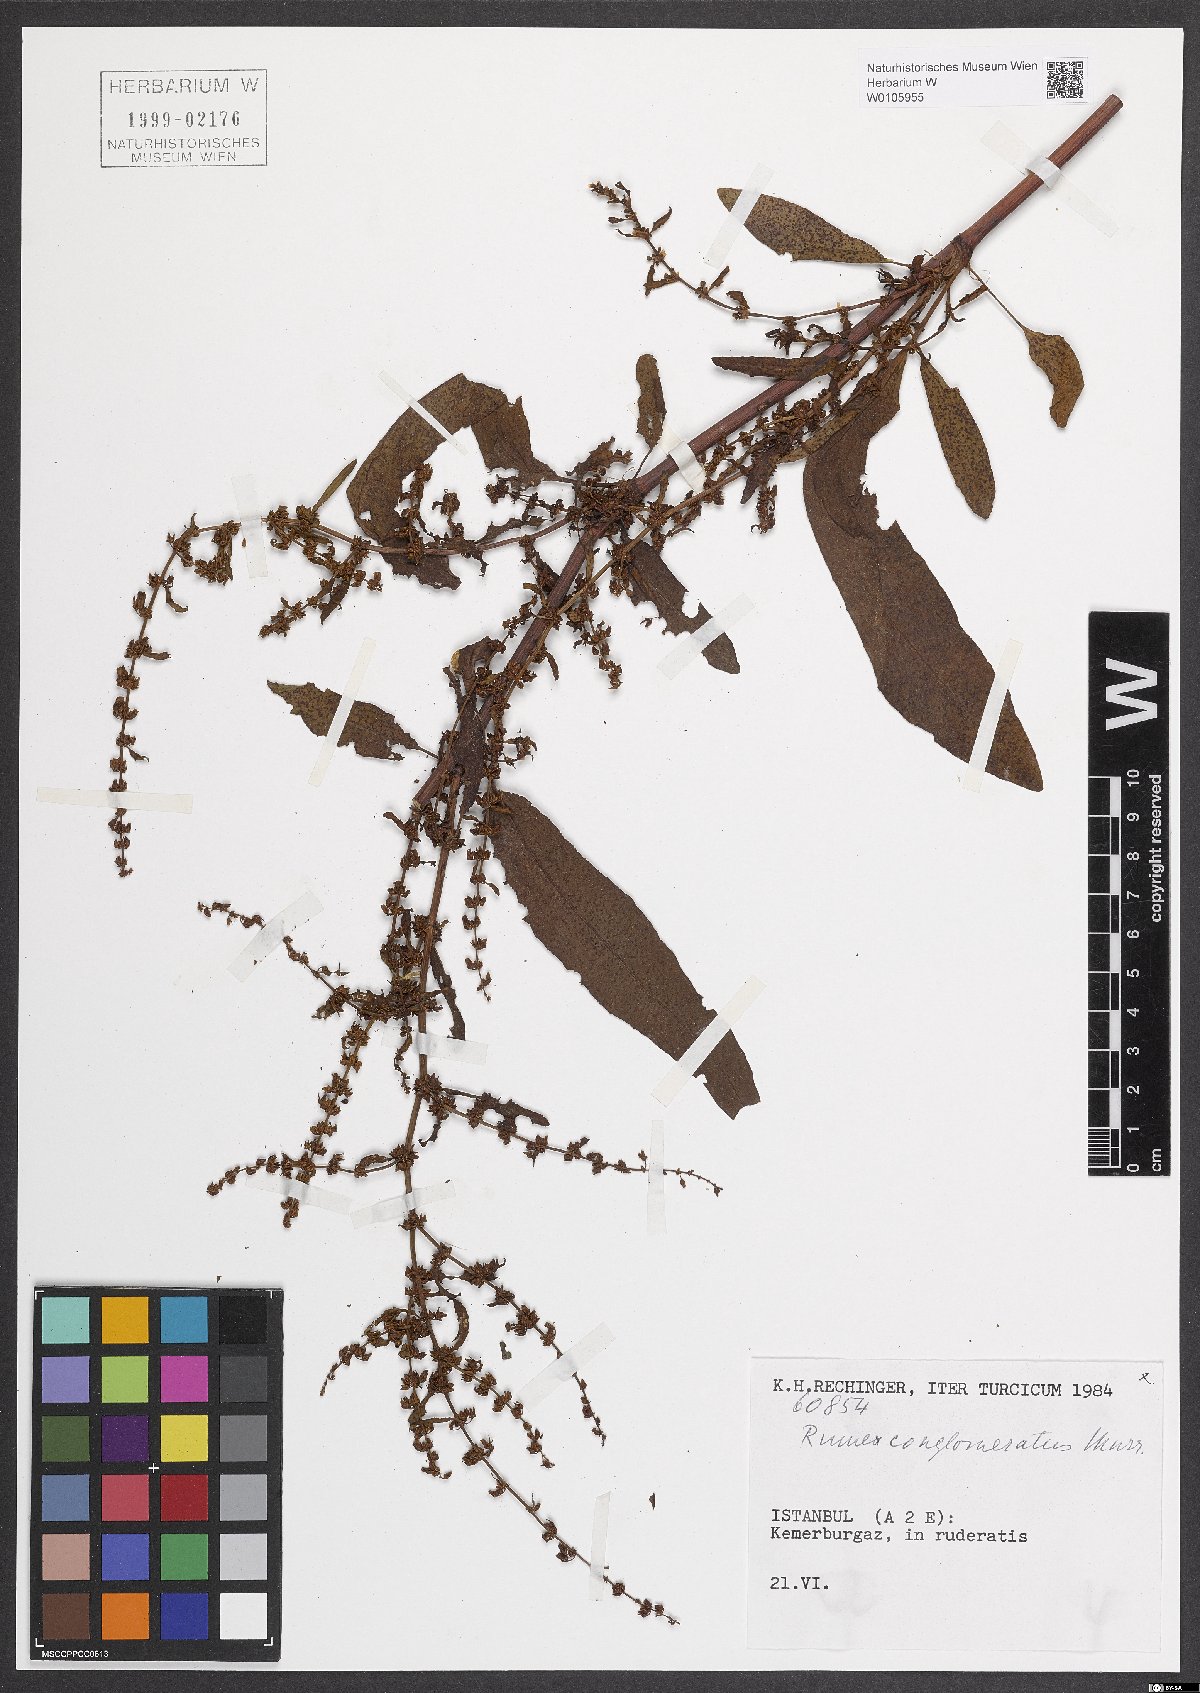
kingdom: Plantae
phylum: Tracheophyta
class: Magnoliopsida
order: Caryophyllales
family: Polygonaceae
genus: Rumex
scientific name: Rumex conglomeratus
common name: Clustered dock
